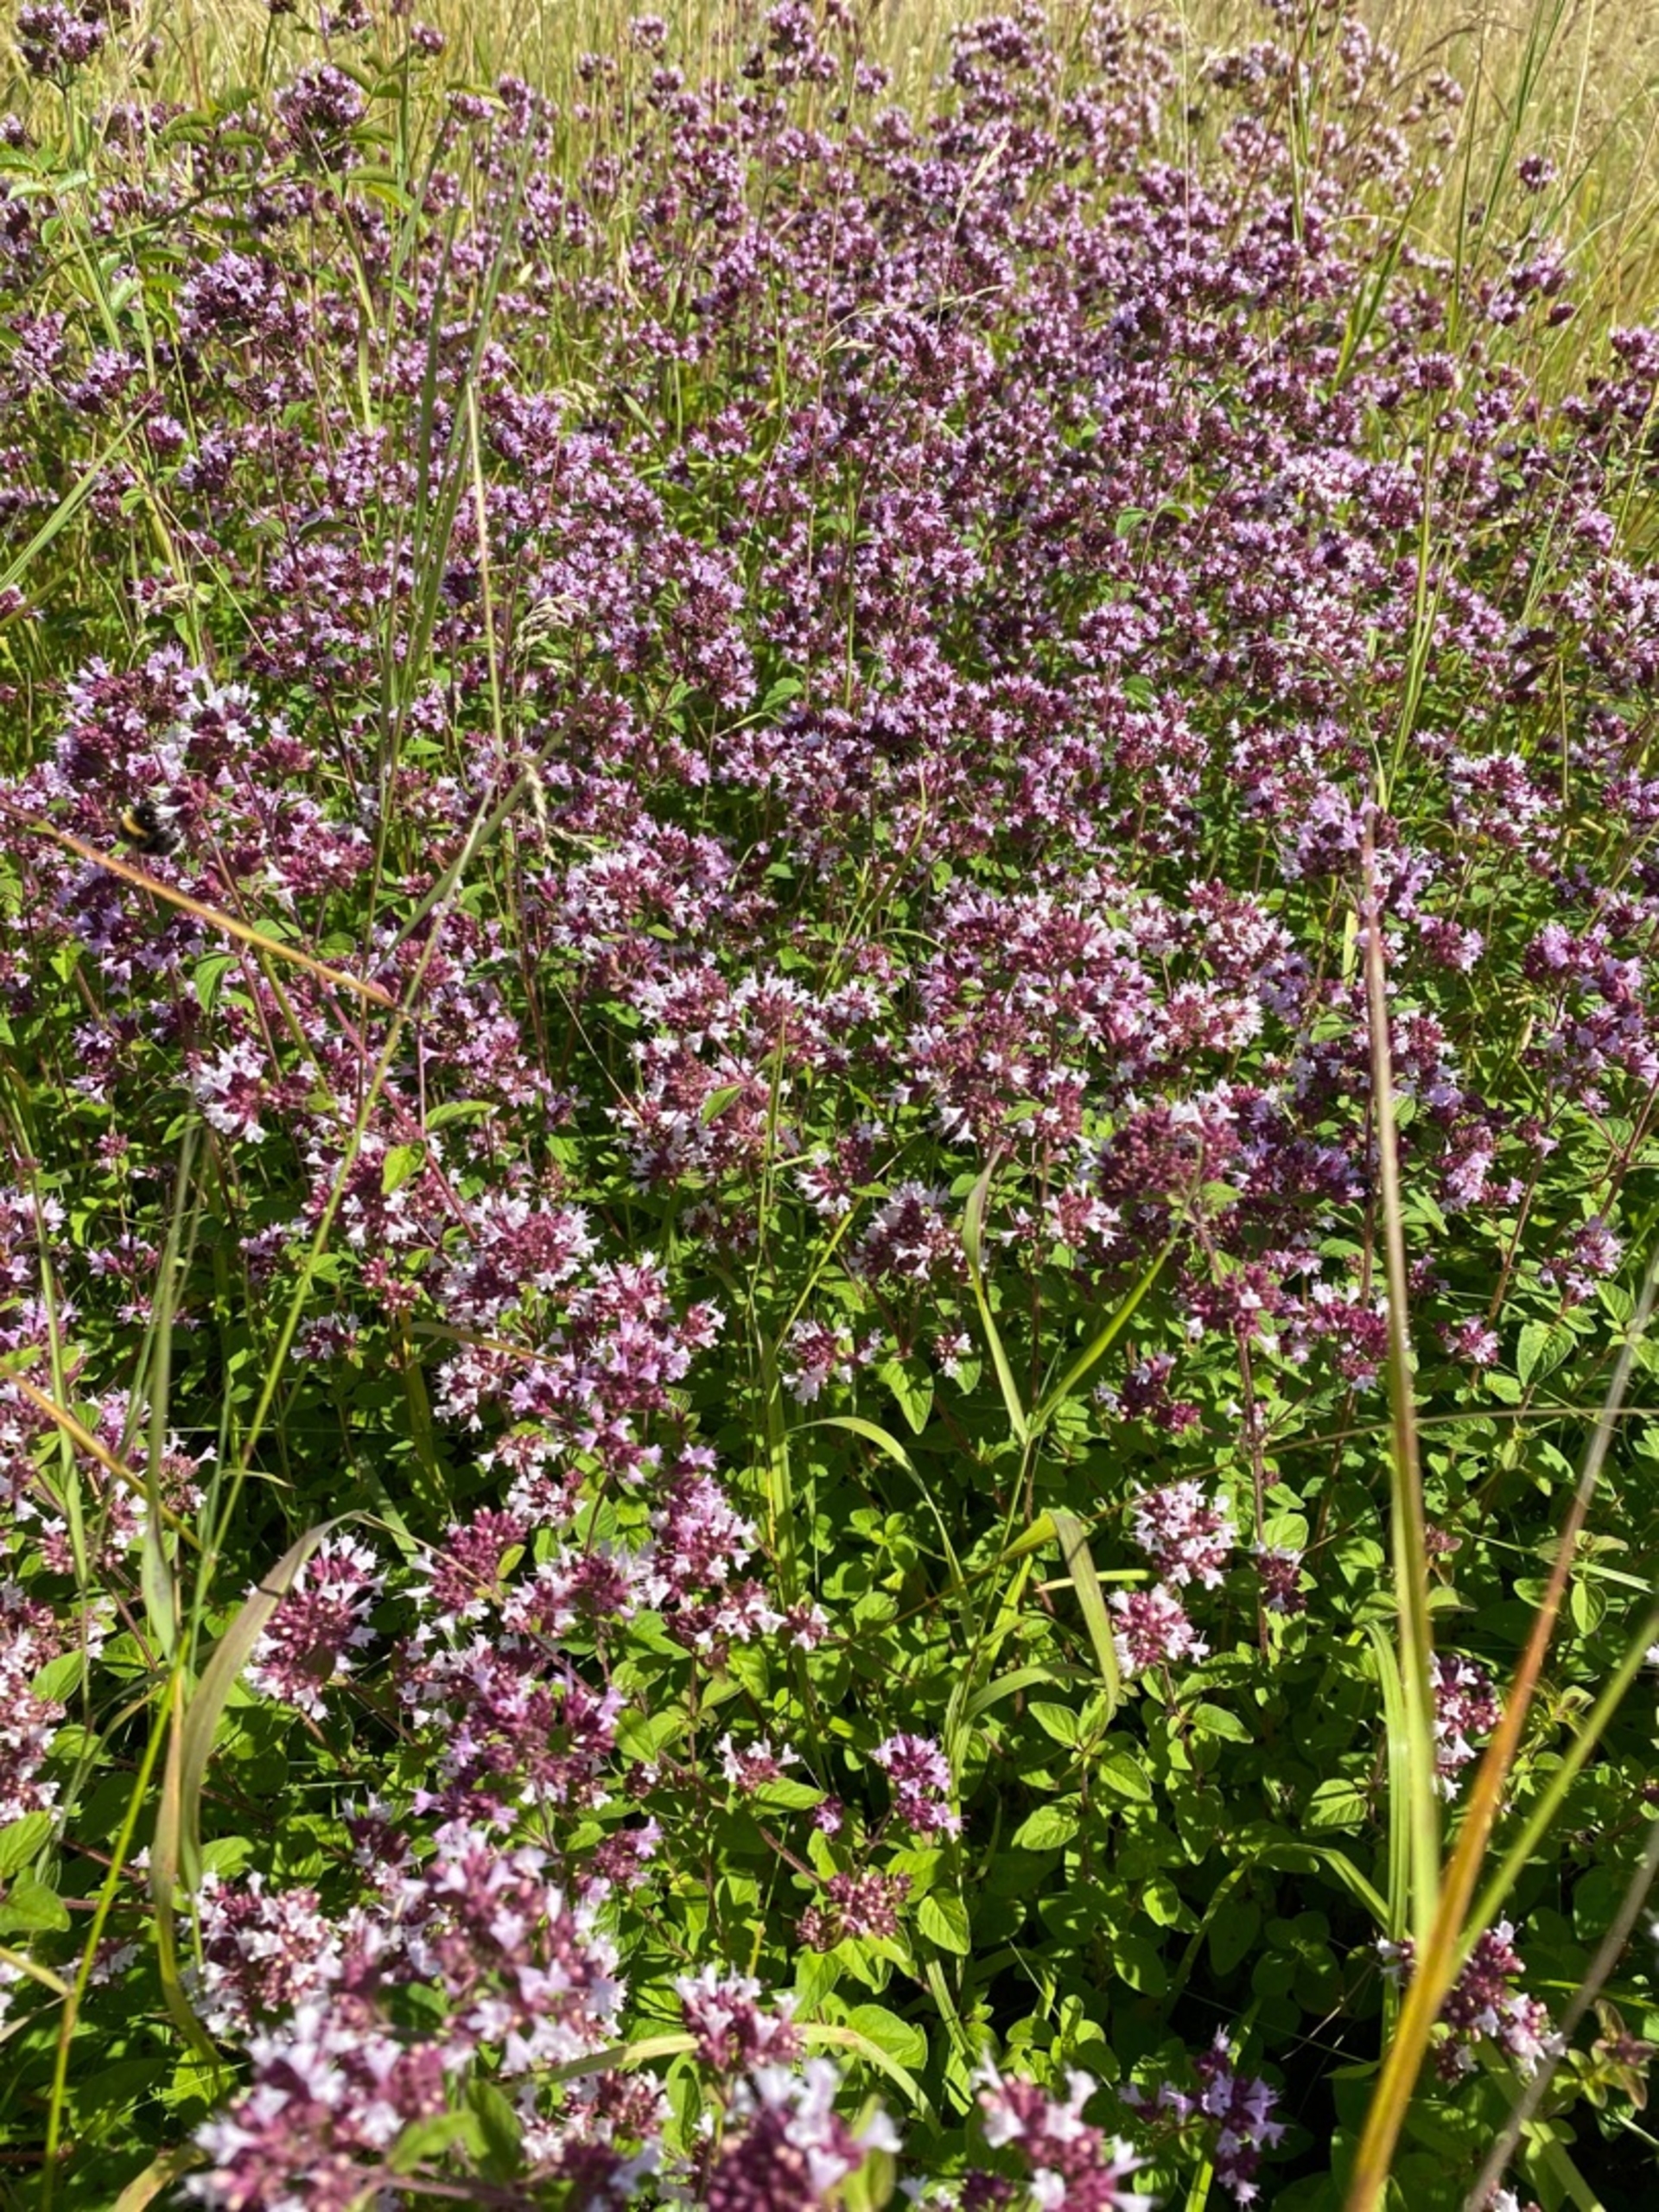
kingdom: Plantae
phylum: Tracheophyta
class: Magnoliopsida
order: Lamiales
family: Lamiaceae
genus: Origanum
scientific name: Origanum vulgare
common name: Merian
